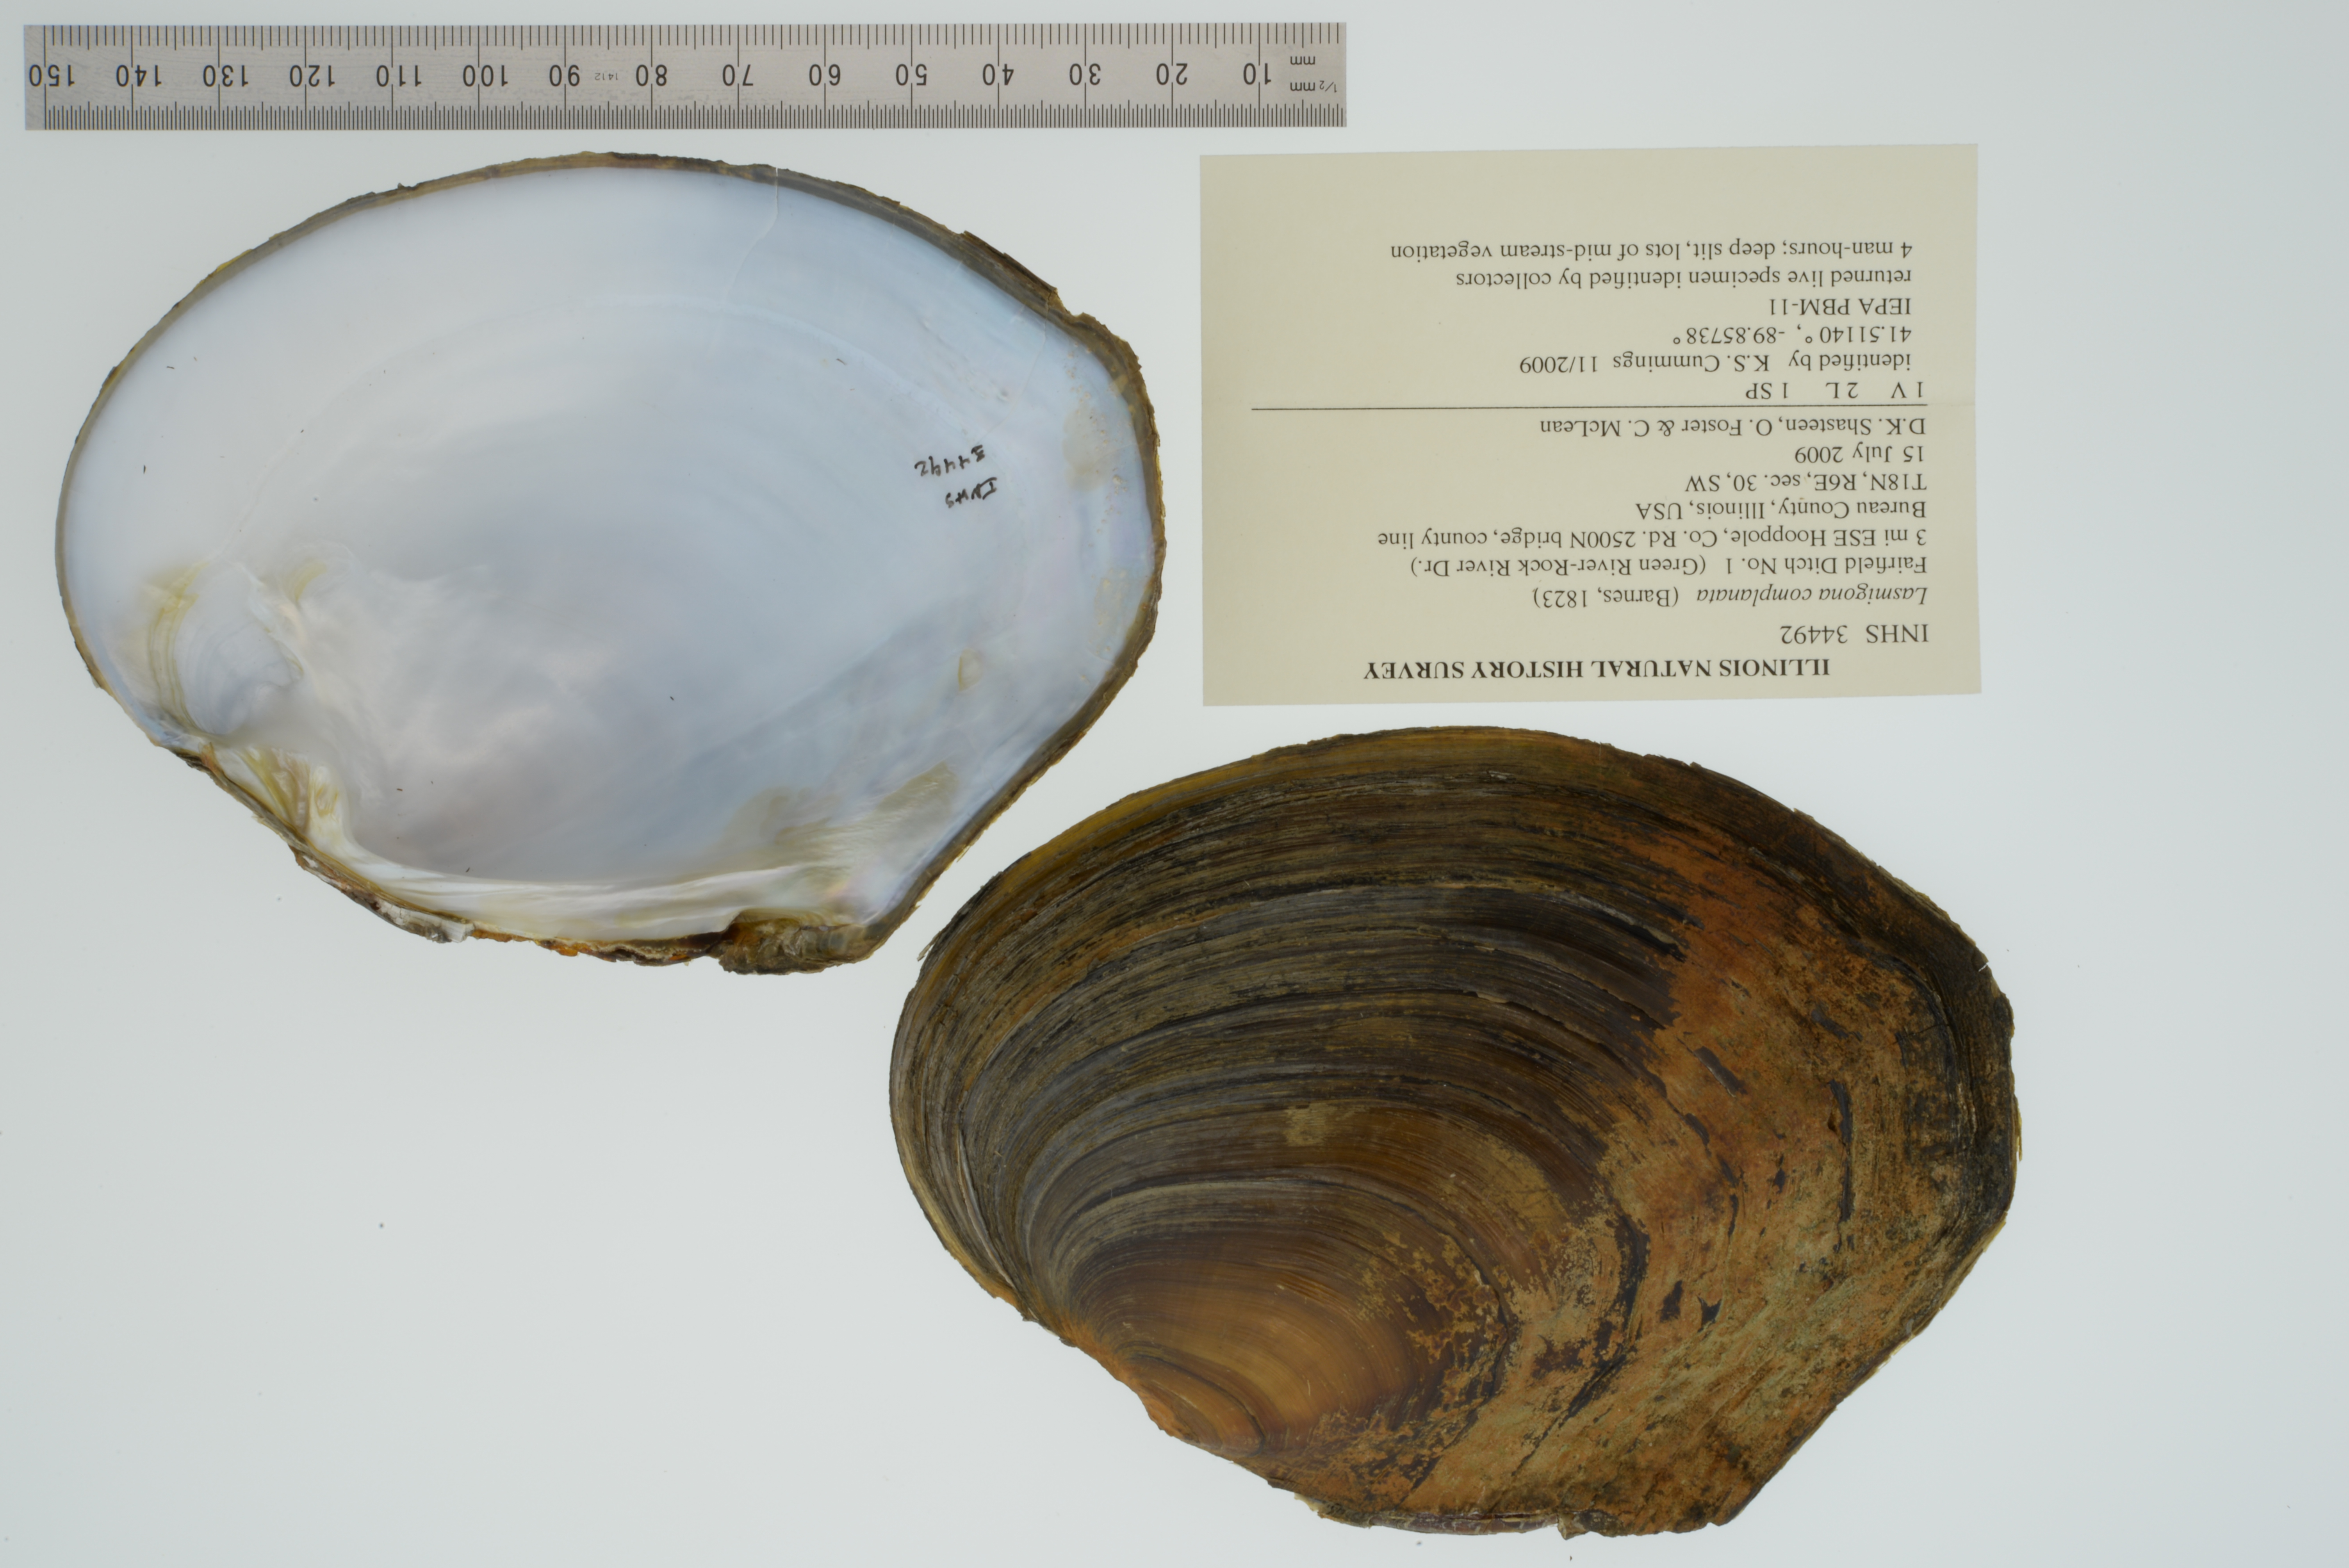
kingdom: Animalia
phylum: Mollusca
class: Bivalvia
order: Unionida
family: Unionidae
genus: Lasmigona
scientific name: Lasmigona complanata
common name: White heelsplitter
